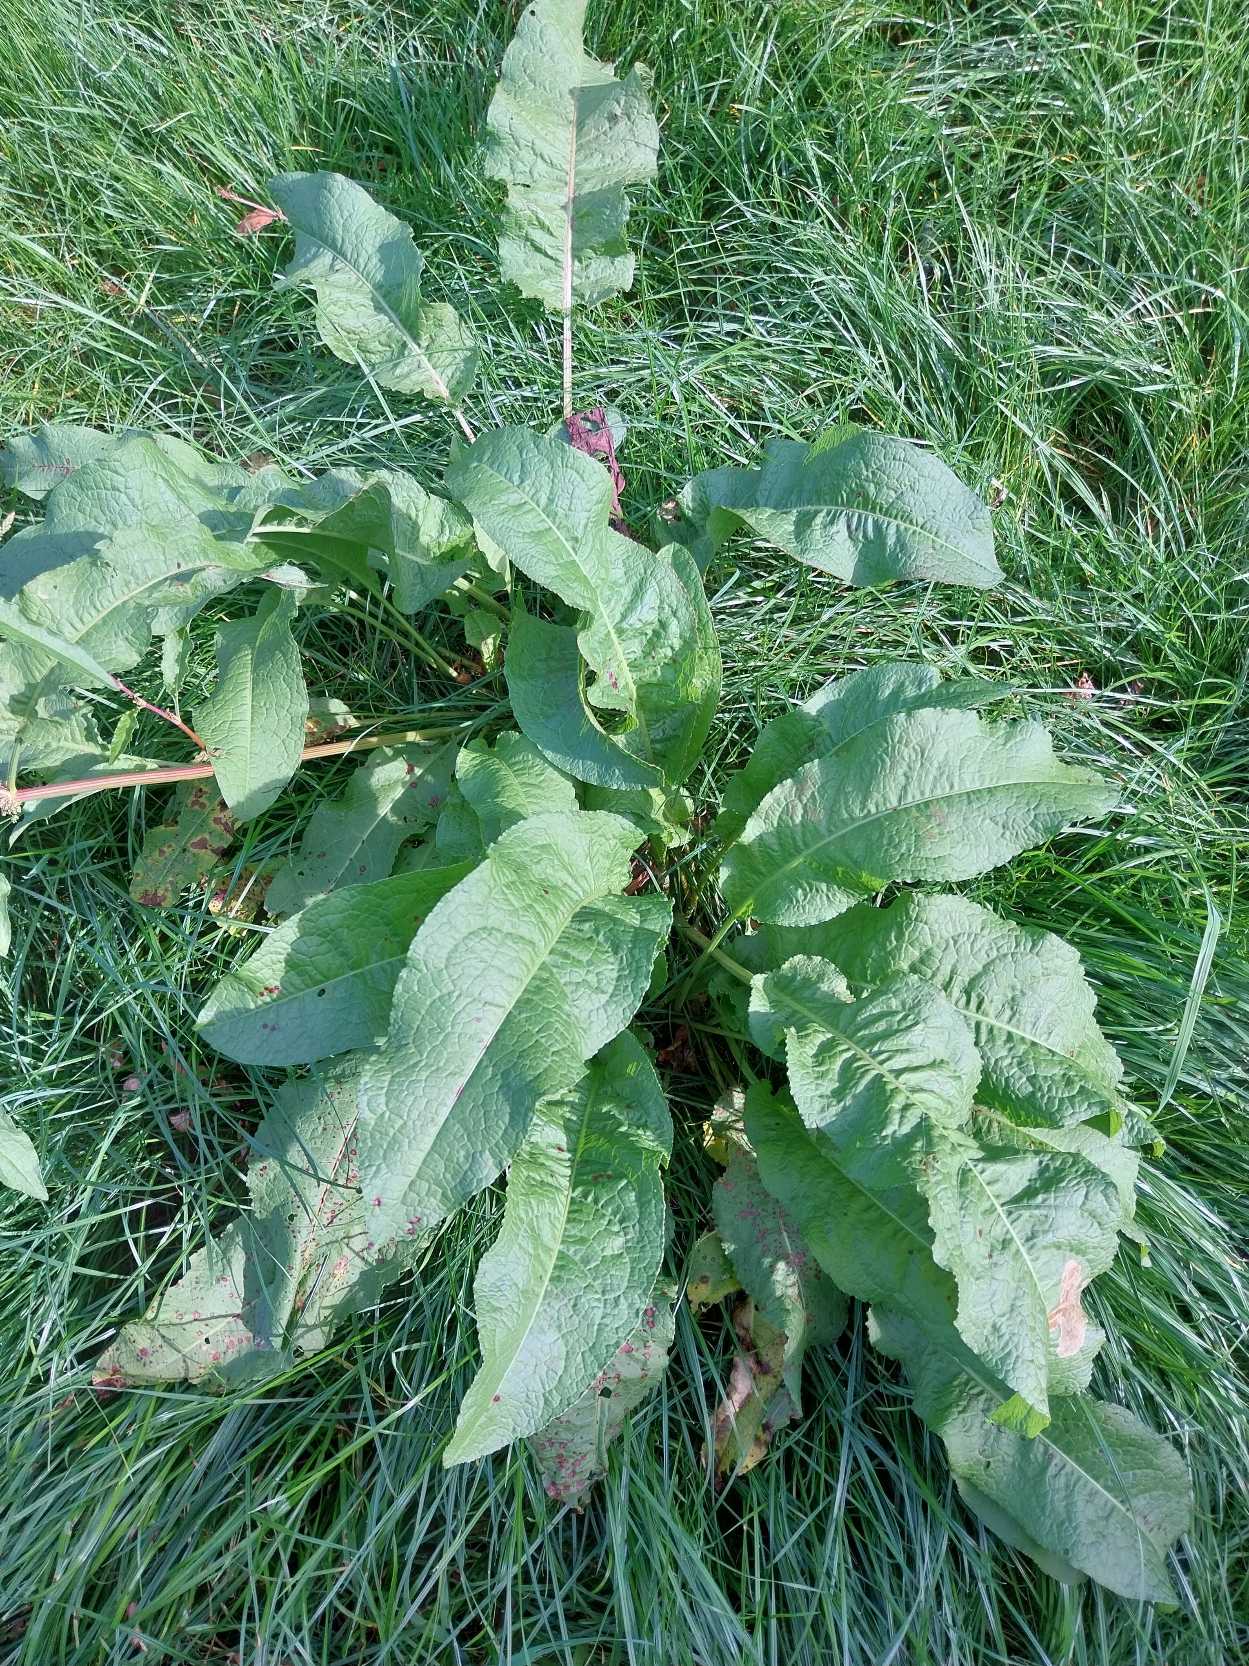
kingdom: Plantae
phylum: Tracheophyta
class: Magnoliopsida
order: Caryophyllales
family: Polygonaceae
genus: Rumex
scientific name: Rumex obtusifolius
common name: Butbladet skræppe
